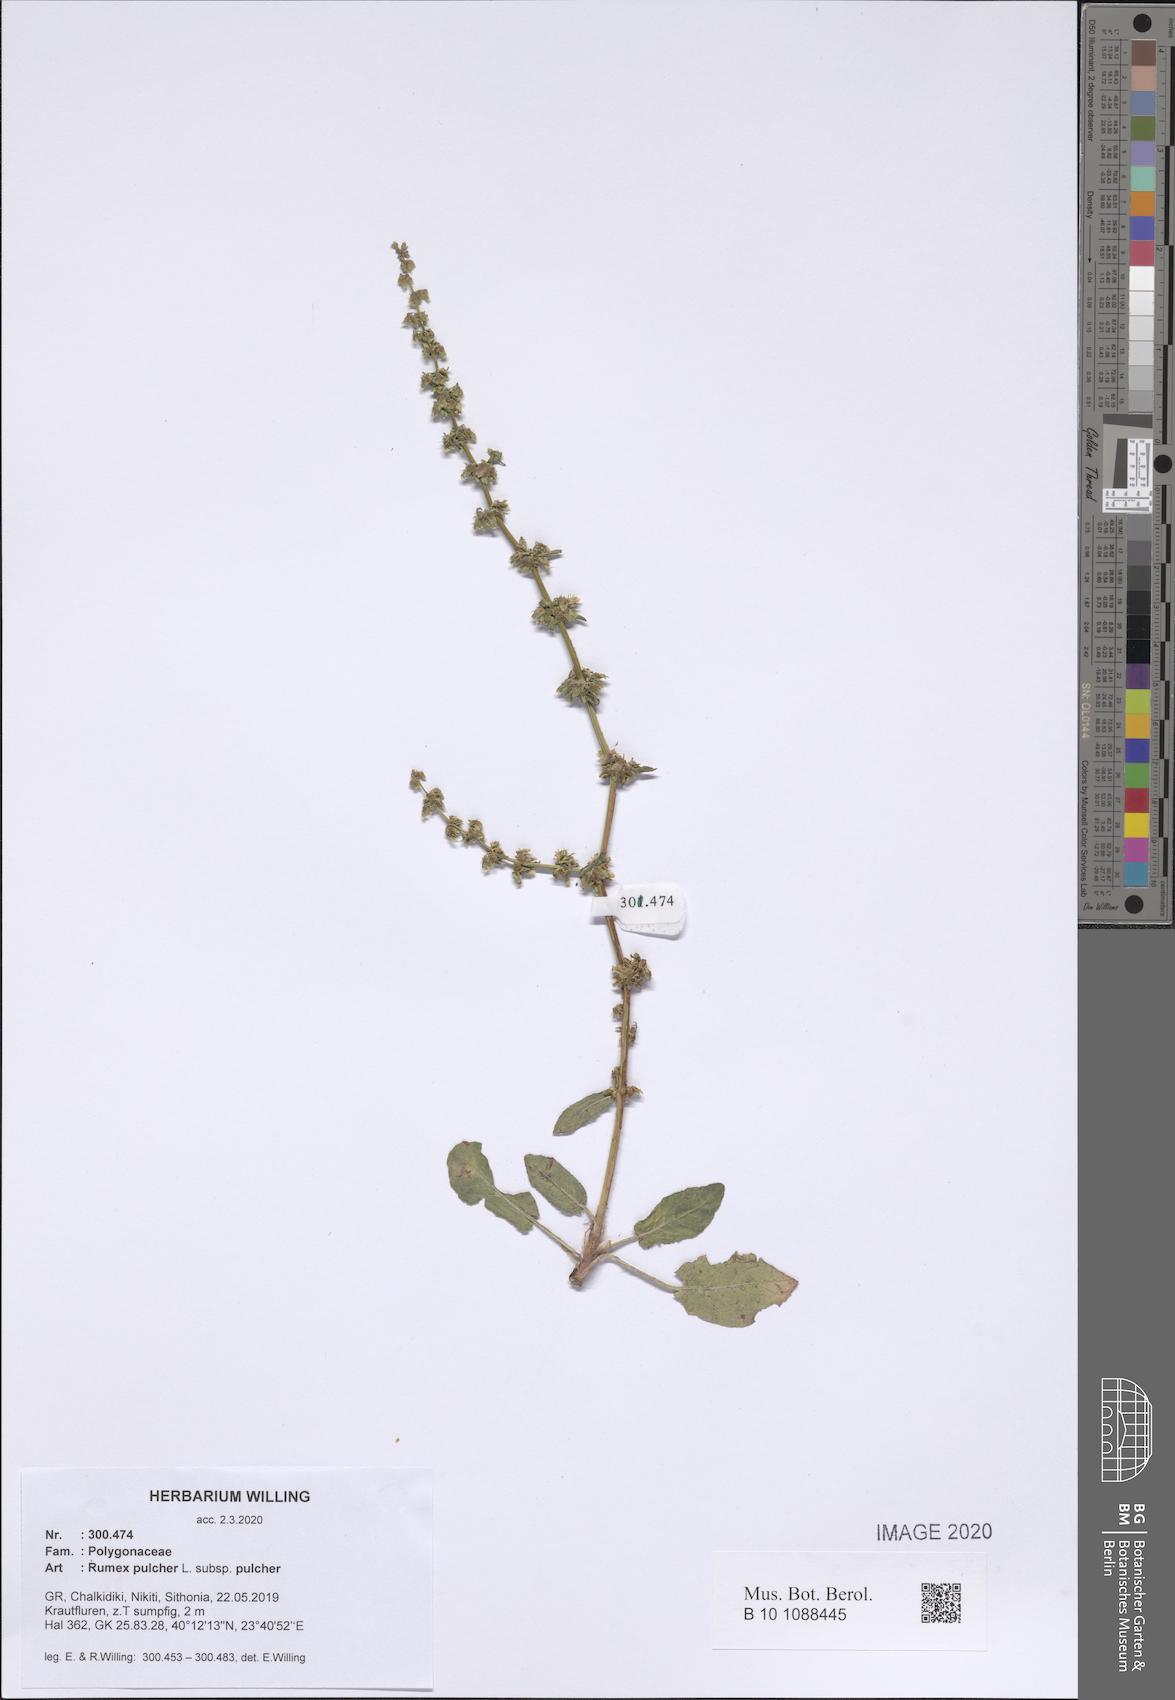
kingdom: Plantae
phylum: Tracheophyta
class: Magnoliopsida
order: Caryophyllales
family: Polygonaceae
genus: Rumex
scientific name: Rumex pulcher
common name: Fiddle dock
